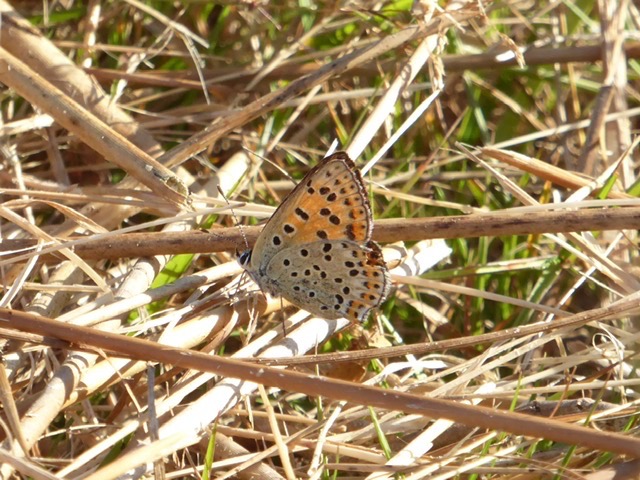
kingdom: Animalia
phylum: Arthropoda
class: Insecta
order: Lepidoptera
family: Lycaenidae
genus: Loweia
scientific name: Loweia tityrus
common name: Sort ildfugl
